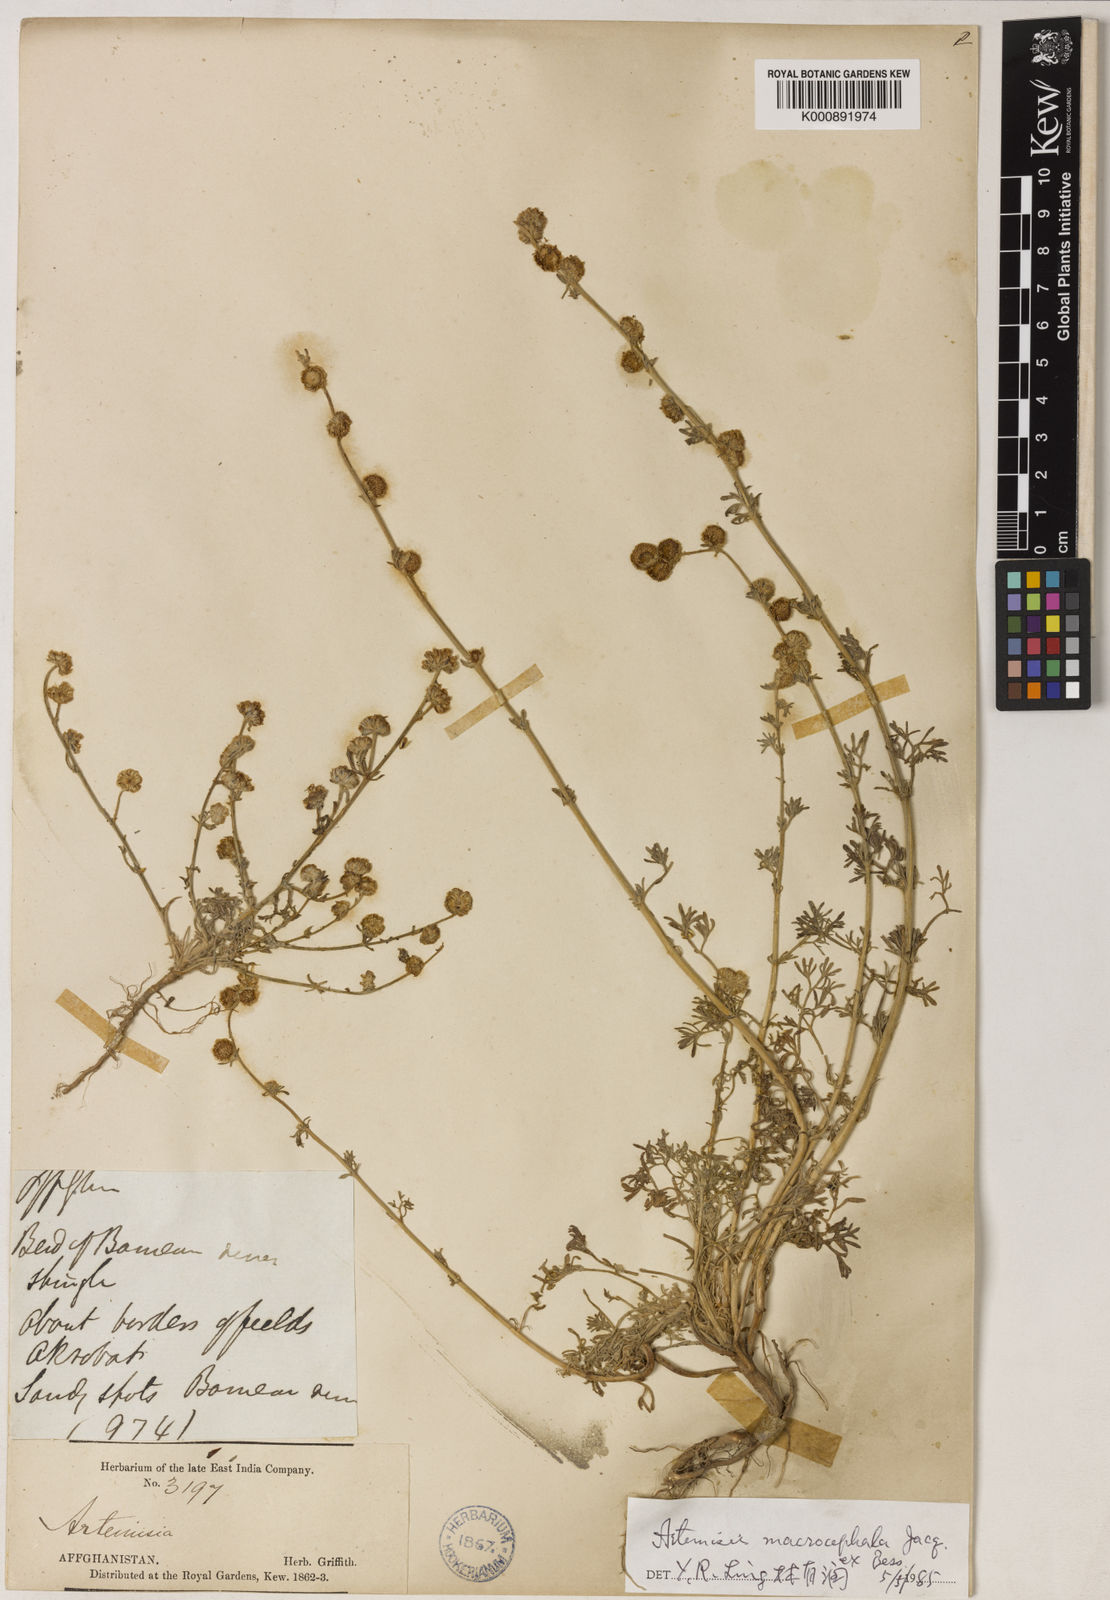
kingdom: Plantae
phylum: Tracheophyta
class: Magnoliopsida
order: Asterales
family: Asteraceae
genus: Artemisia
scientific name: Artemisia macrocephala
